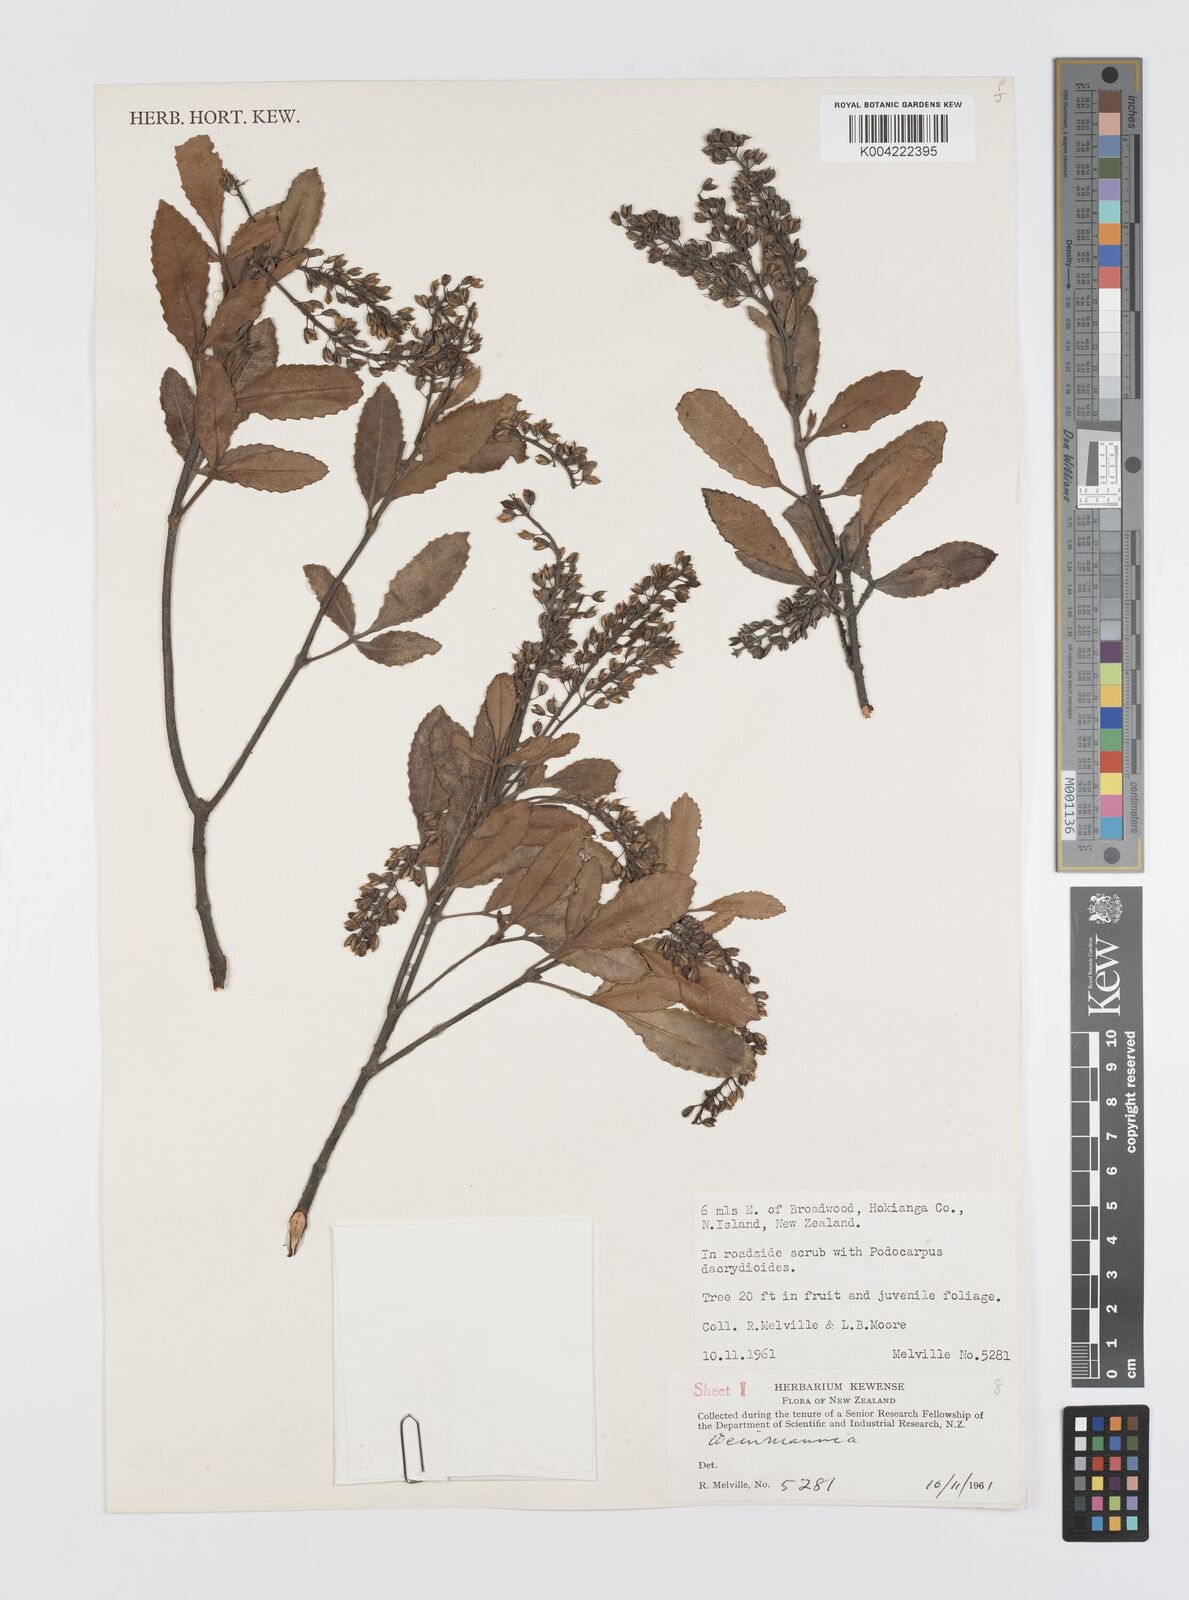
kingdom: Plantae
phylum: Tracheophyta
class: Magnoliopsida
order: Oxalidales
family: Cunoniaceae
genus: Weinmannia
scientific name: Weinmannia
